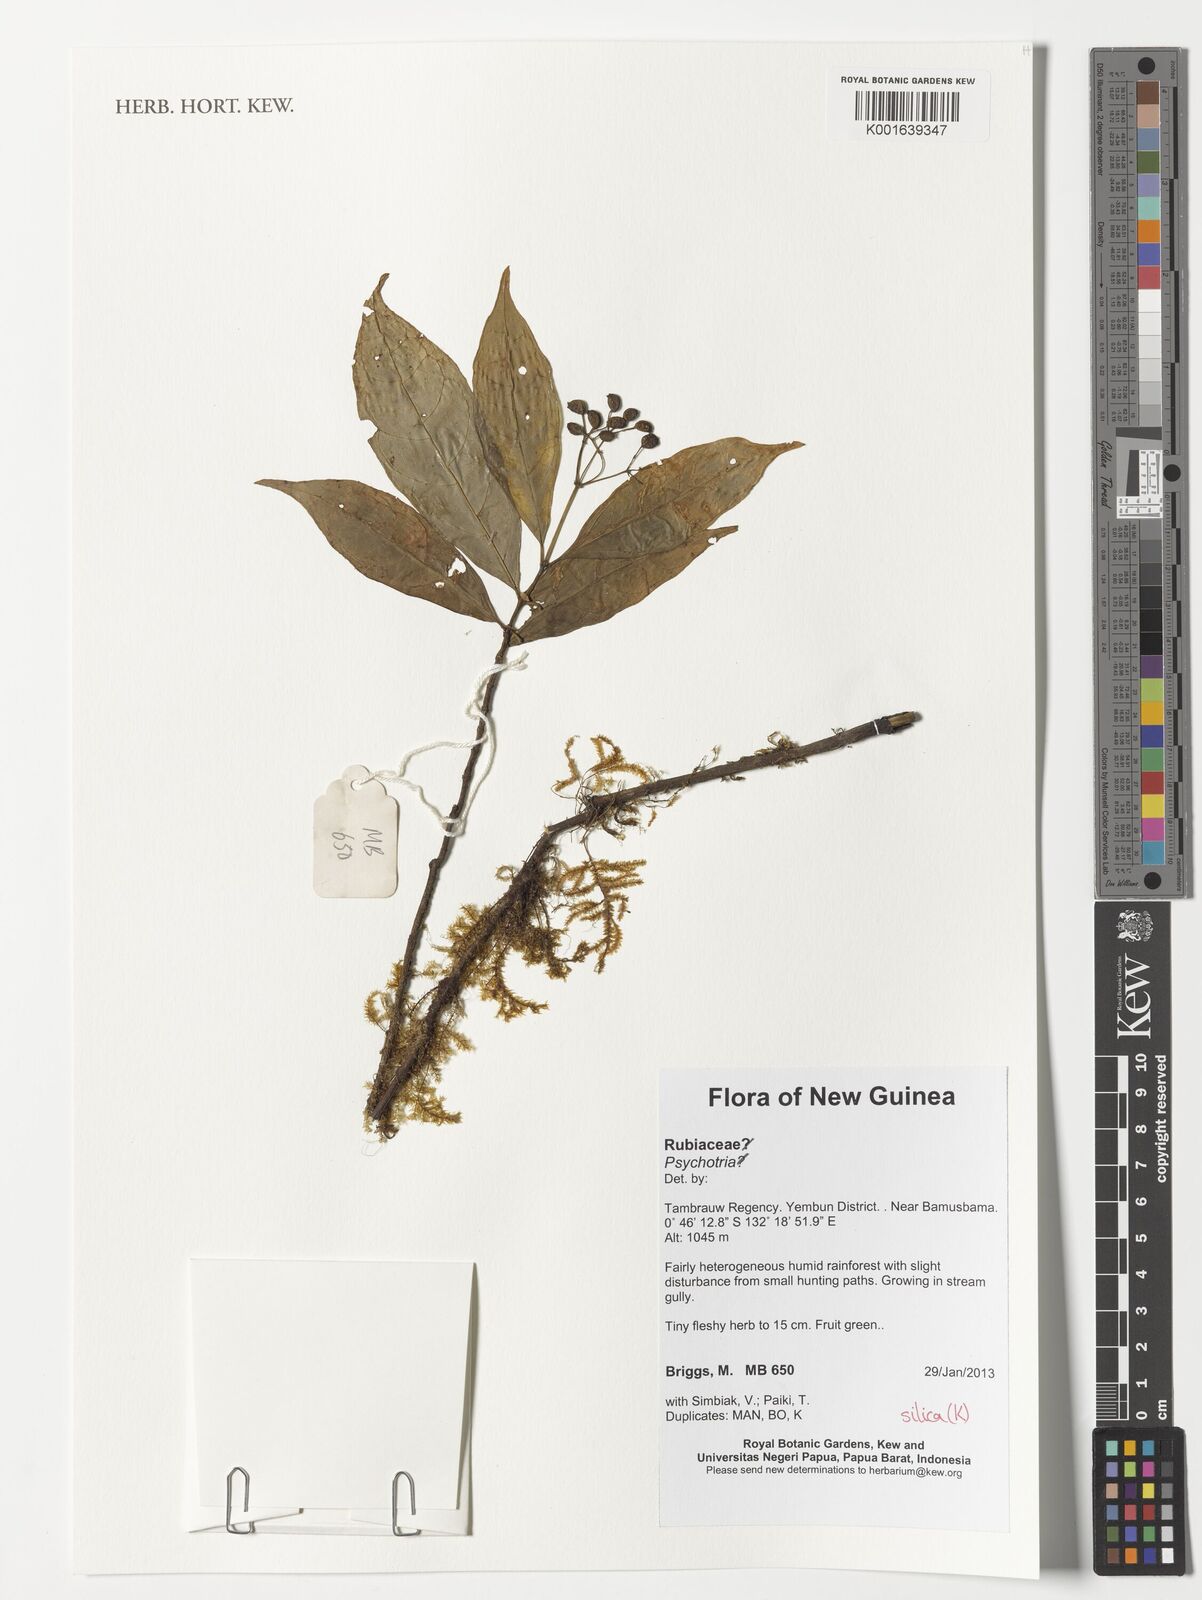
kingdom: Plantae
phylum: Tracheophyta
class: Magnoliopsida
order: Gentianales
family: Rubiaceae
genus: Psychotria
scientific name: Psychotria
